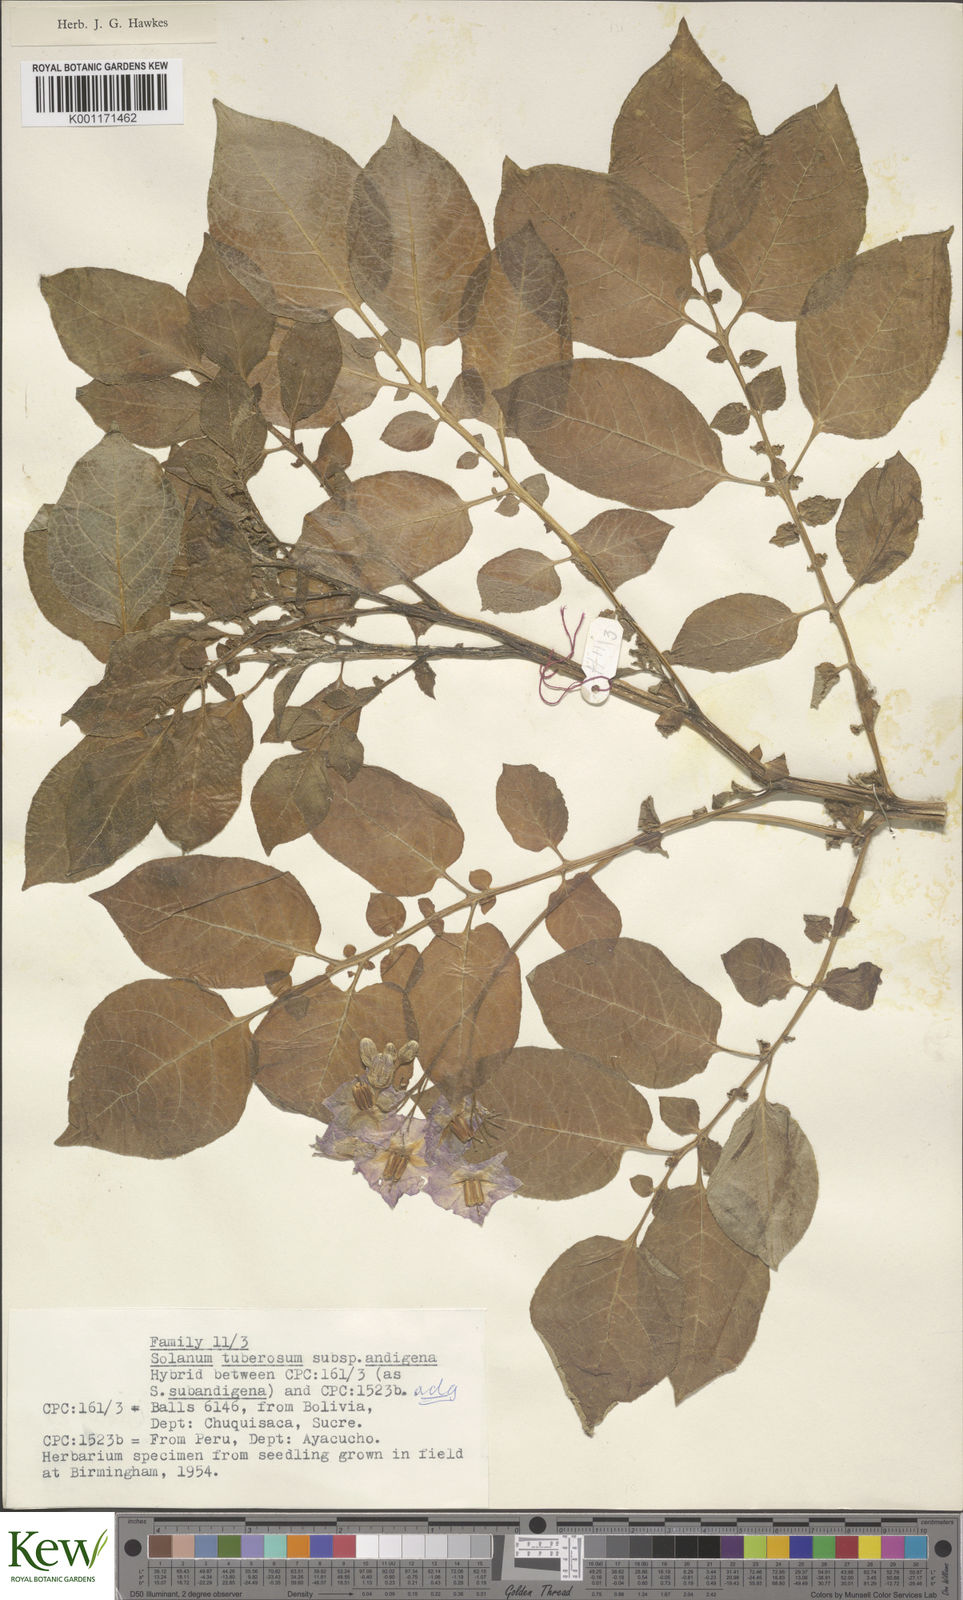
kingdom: Plantae
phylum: Tracheophyta
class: Magnoliopsida
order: Solanales
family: Solanaceae
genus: Solanum
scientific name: Solanum tuberosum
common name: Potato
